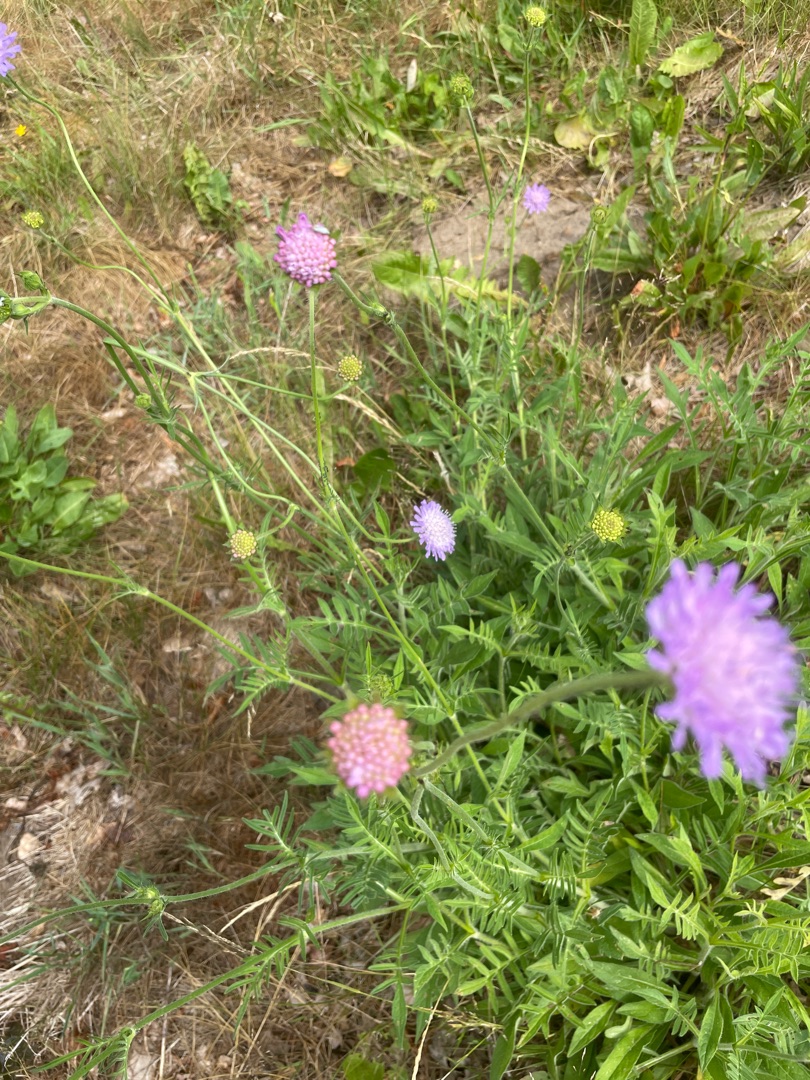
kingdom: Plantae
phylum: Tracheophyta
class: Magnoliopsida
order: Dipsacales
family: Caprifoliaceae
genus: Knautia
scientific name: Knautia arvensis
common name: Blåhat
